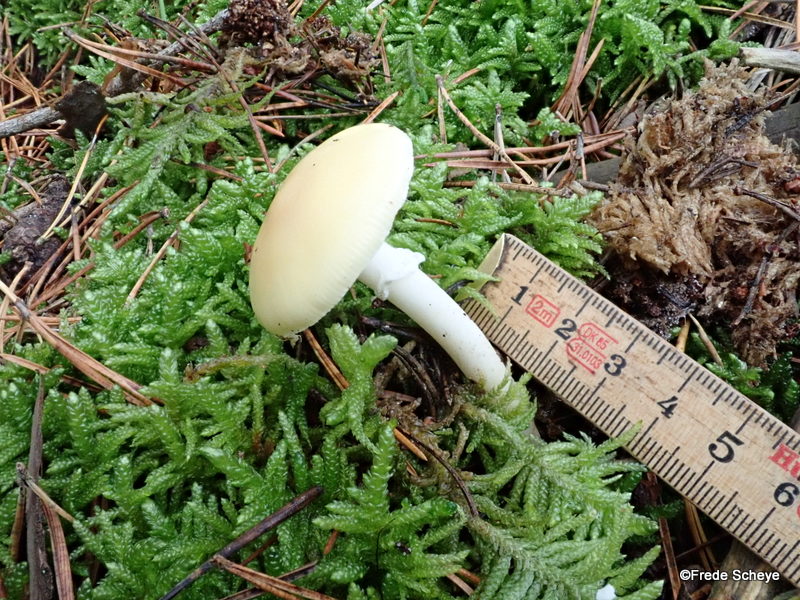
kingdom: Fungi
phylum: Basidiomycota
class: Agaricomycetes
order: Agaricales
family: Amanitaceae
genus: Amanita
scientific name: Amanita gemmata
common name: okkergul fluesvamp
